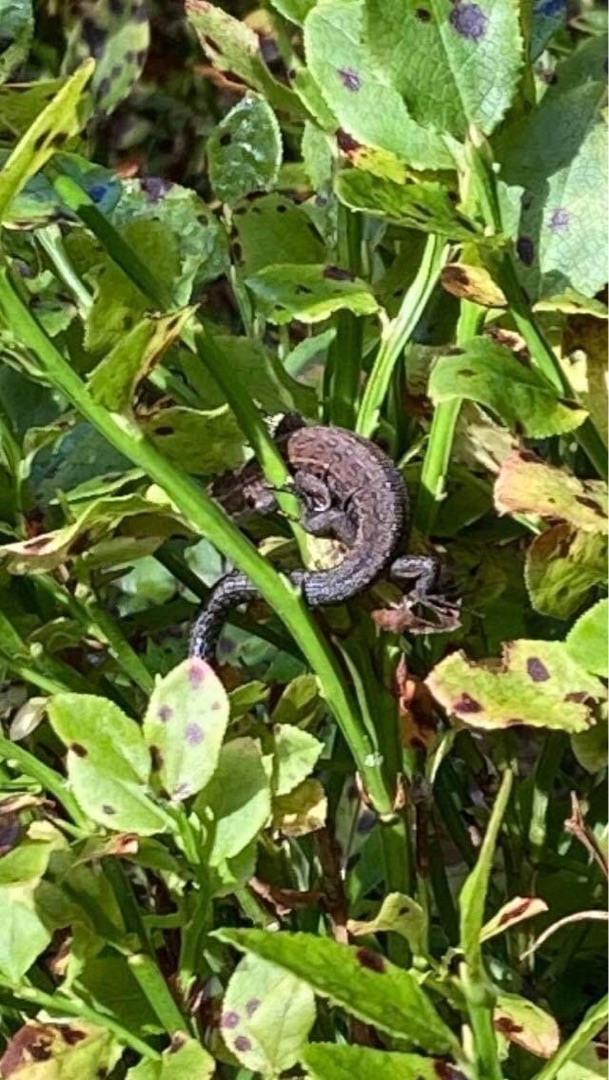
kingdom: Animalia
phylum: Chordata
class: Squamata
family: Lacertidae
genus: Zootoca
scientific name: Zootoca vivipara
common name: Skovfirben
